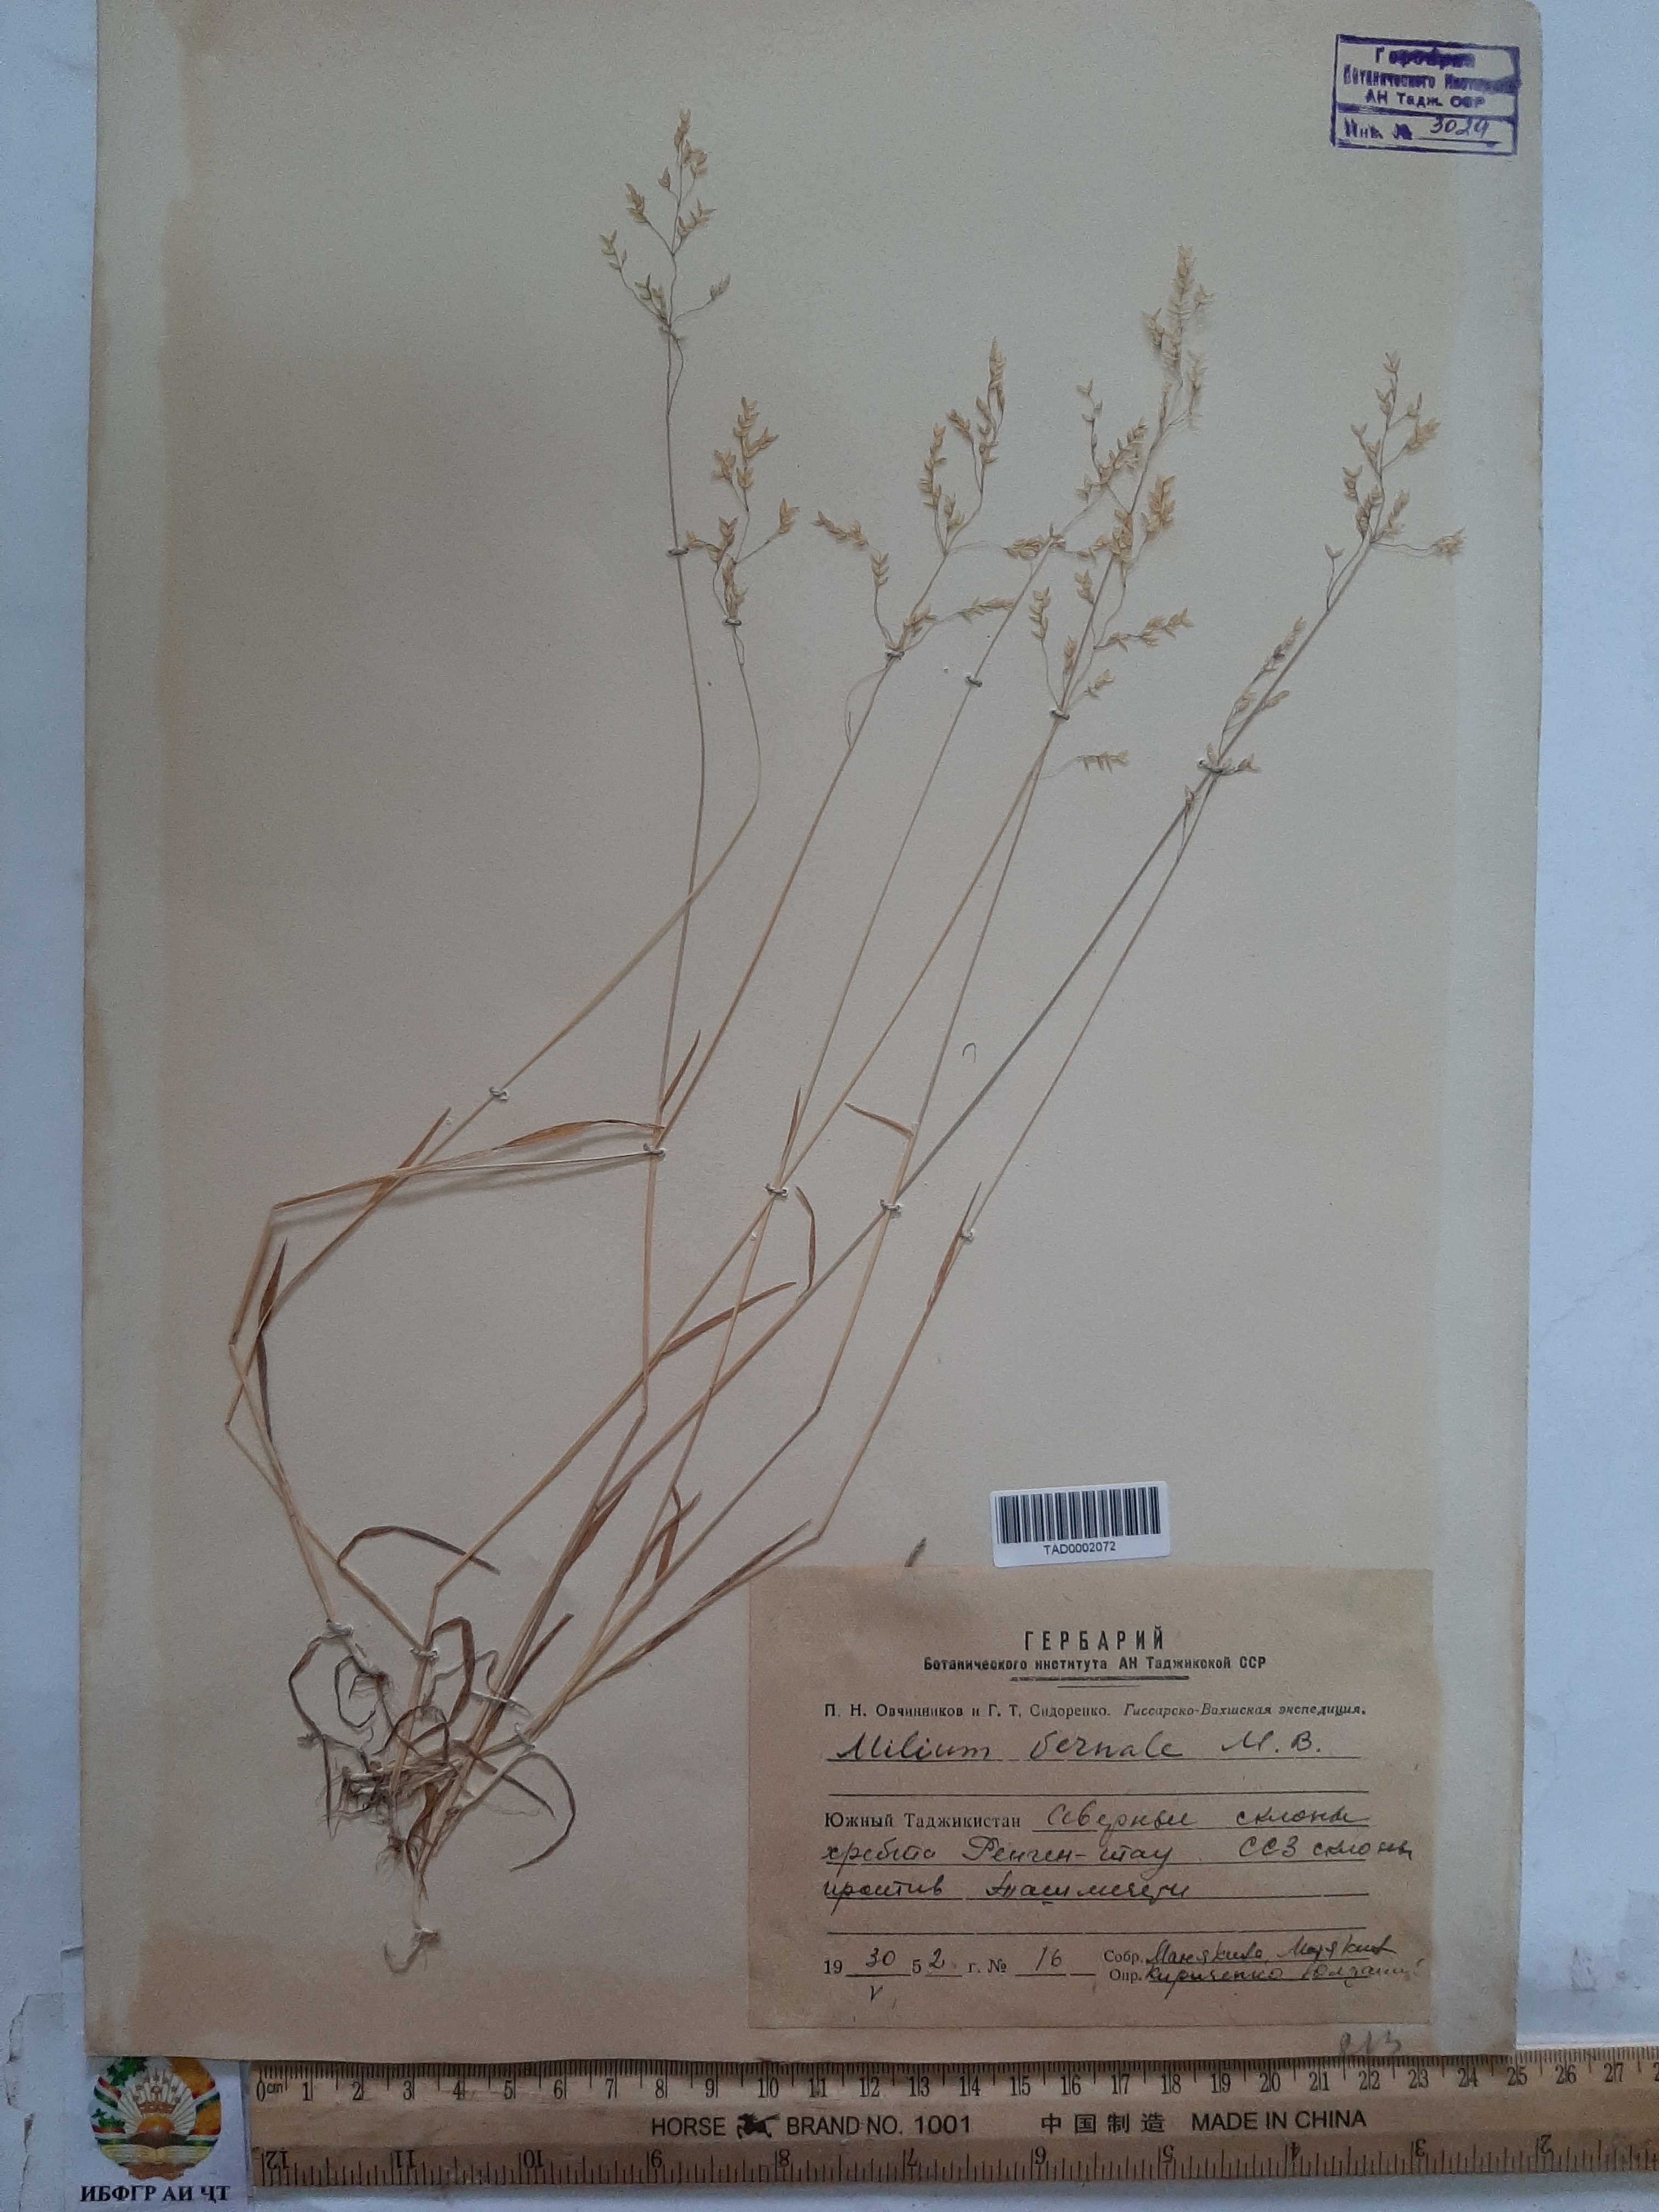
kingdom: Plantae
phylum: Tracheophyta
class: Liliopsida
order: Poales
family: Poaceae
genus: Milium
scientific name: Milium vernale
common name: Early millet
